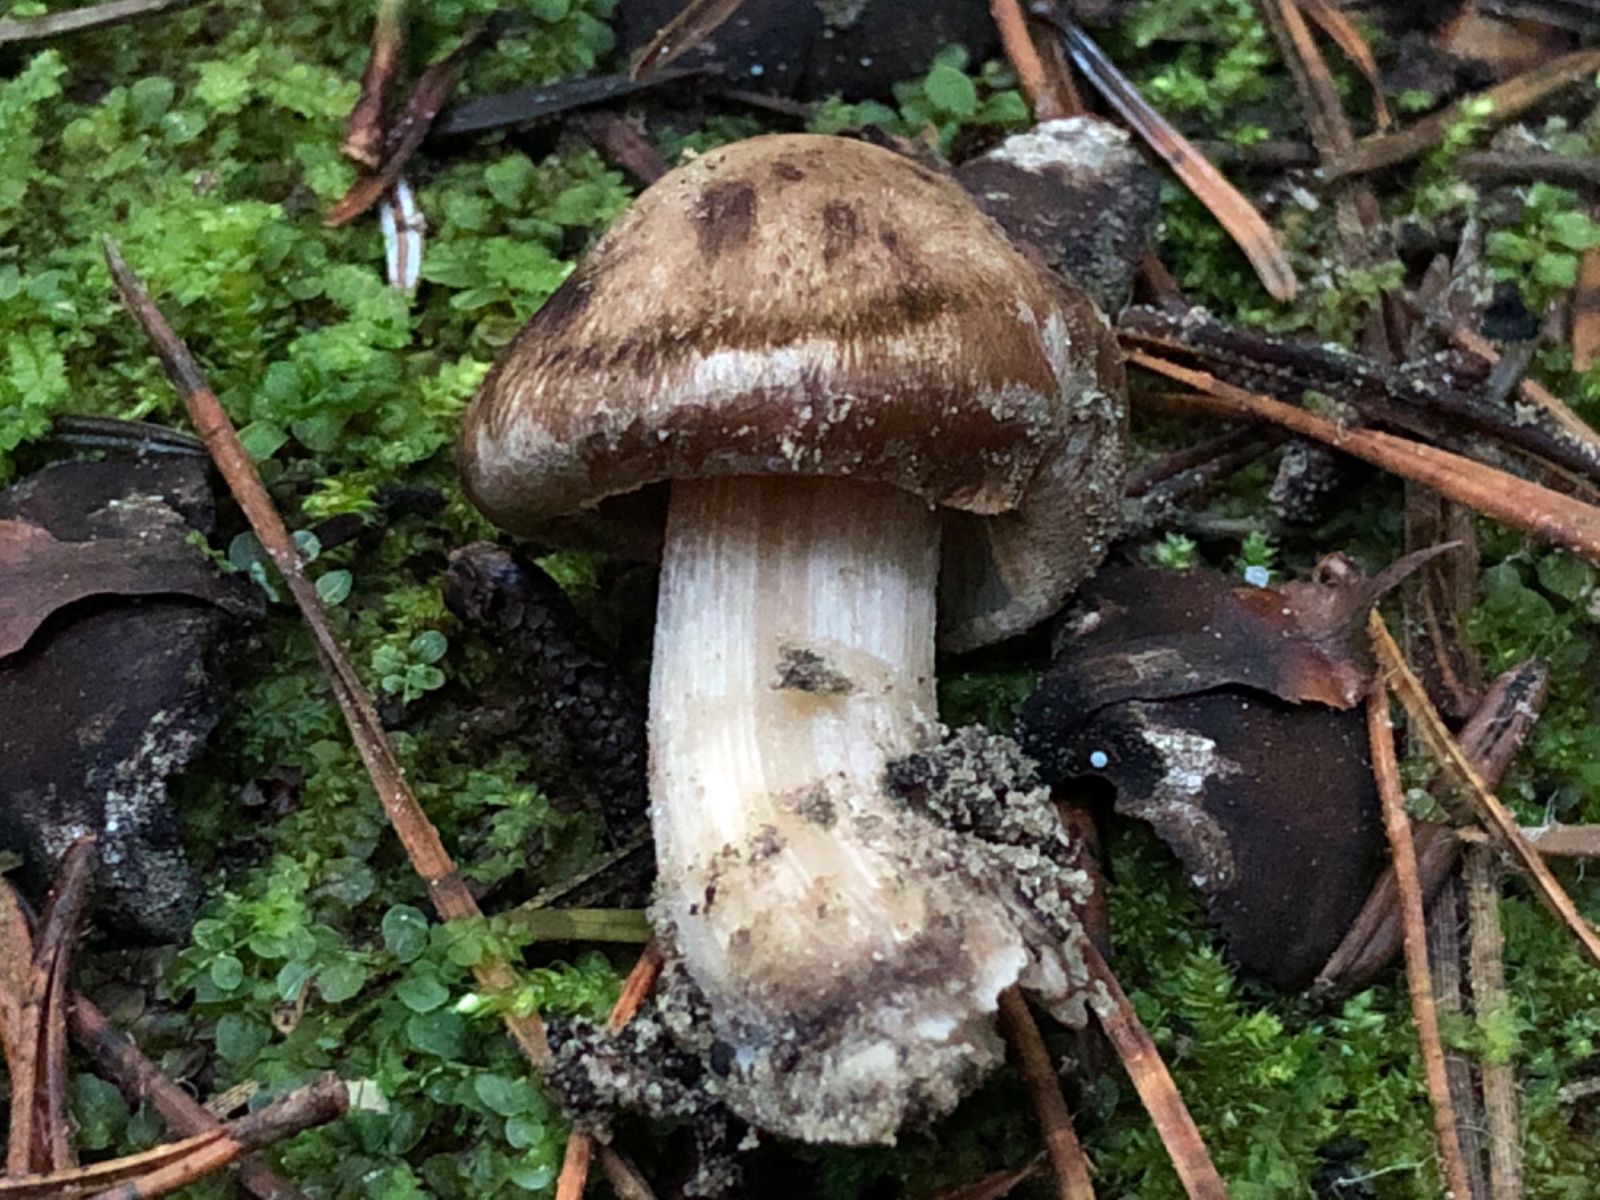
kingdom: Fungi
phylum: Basidiomycota
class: Agaricomycetes
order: Agaricales
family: Inocybaceae
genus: Inocybe
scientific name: Inocybe melanopoda
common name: sortfodet trævlhat
